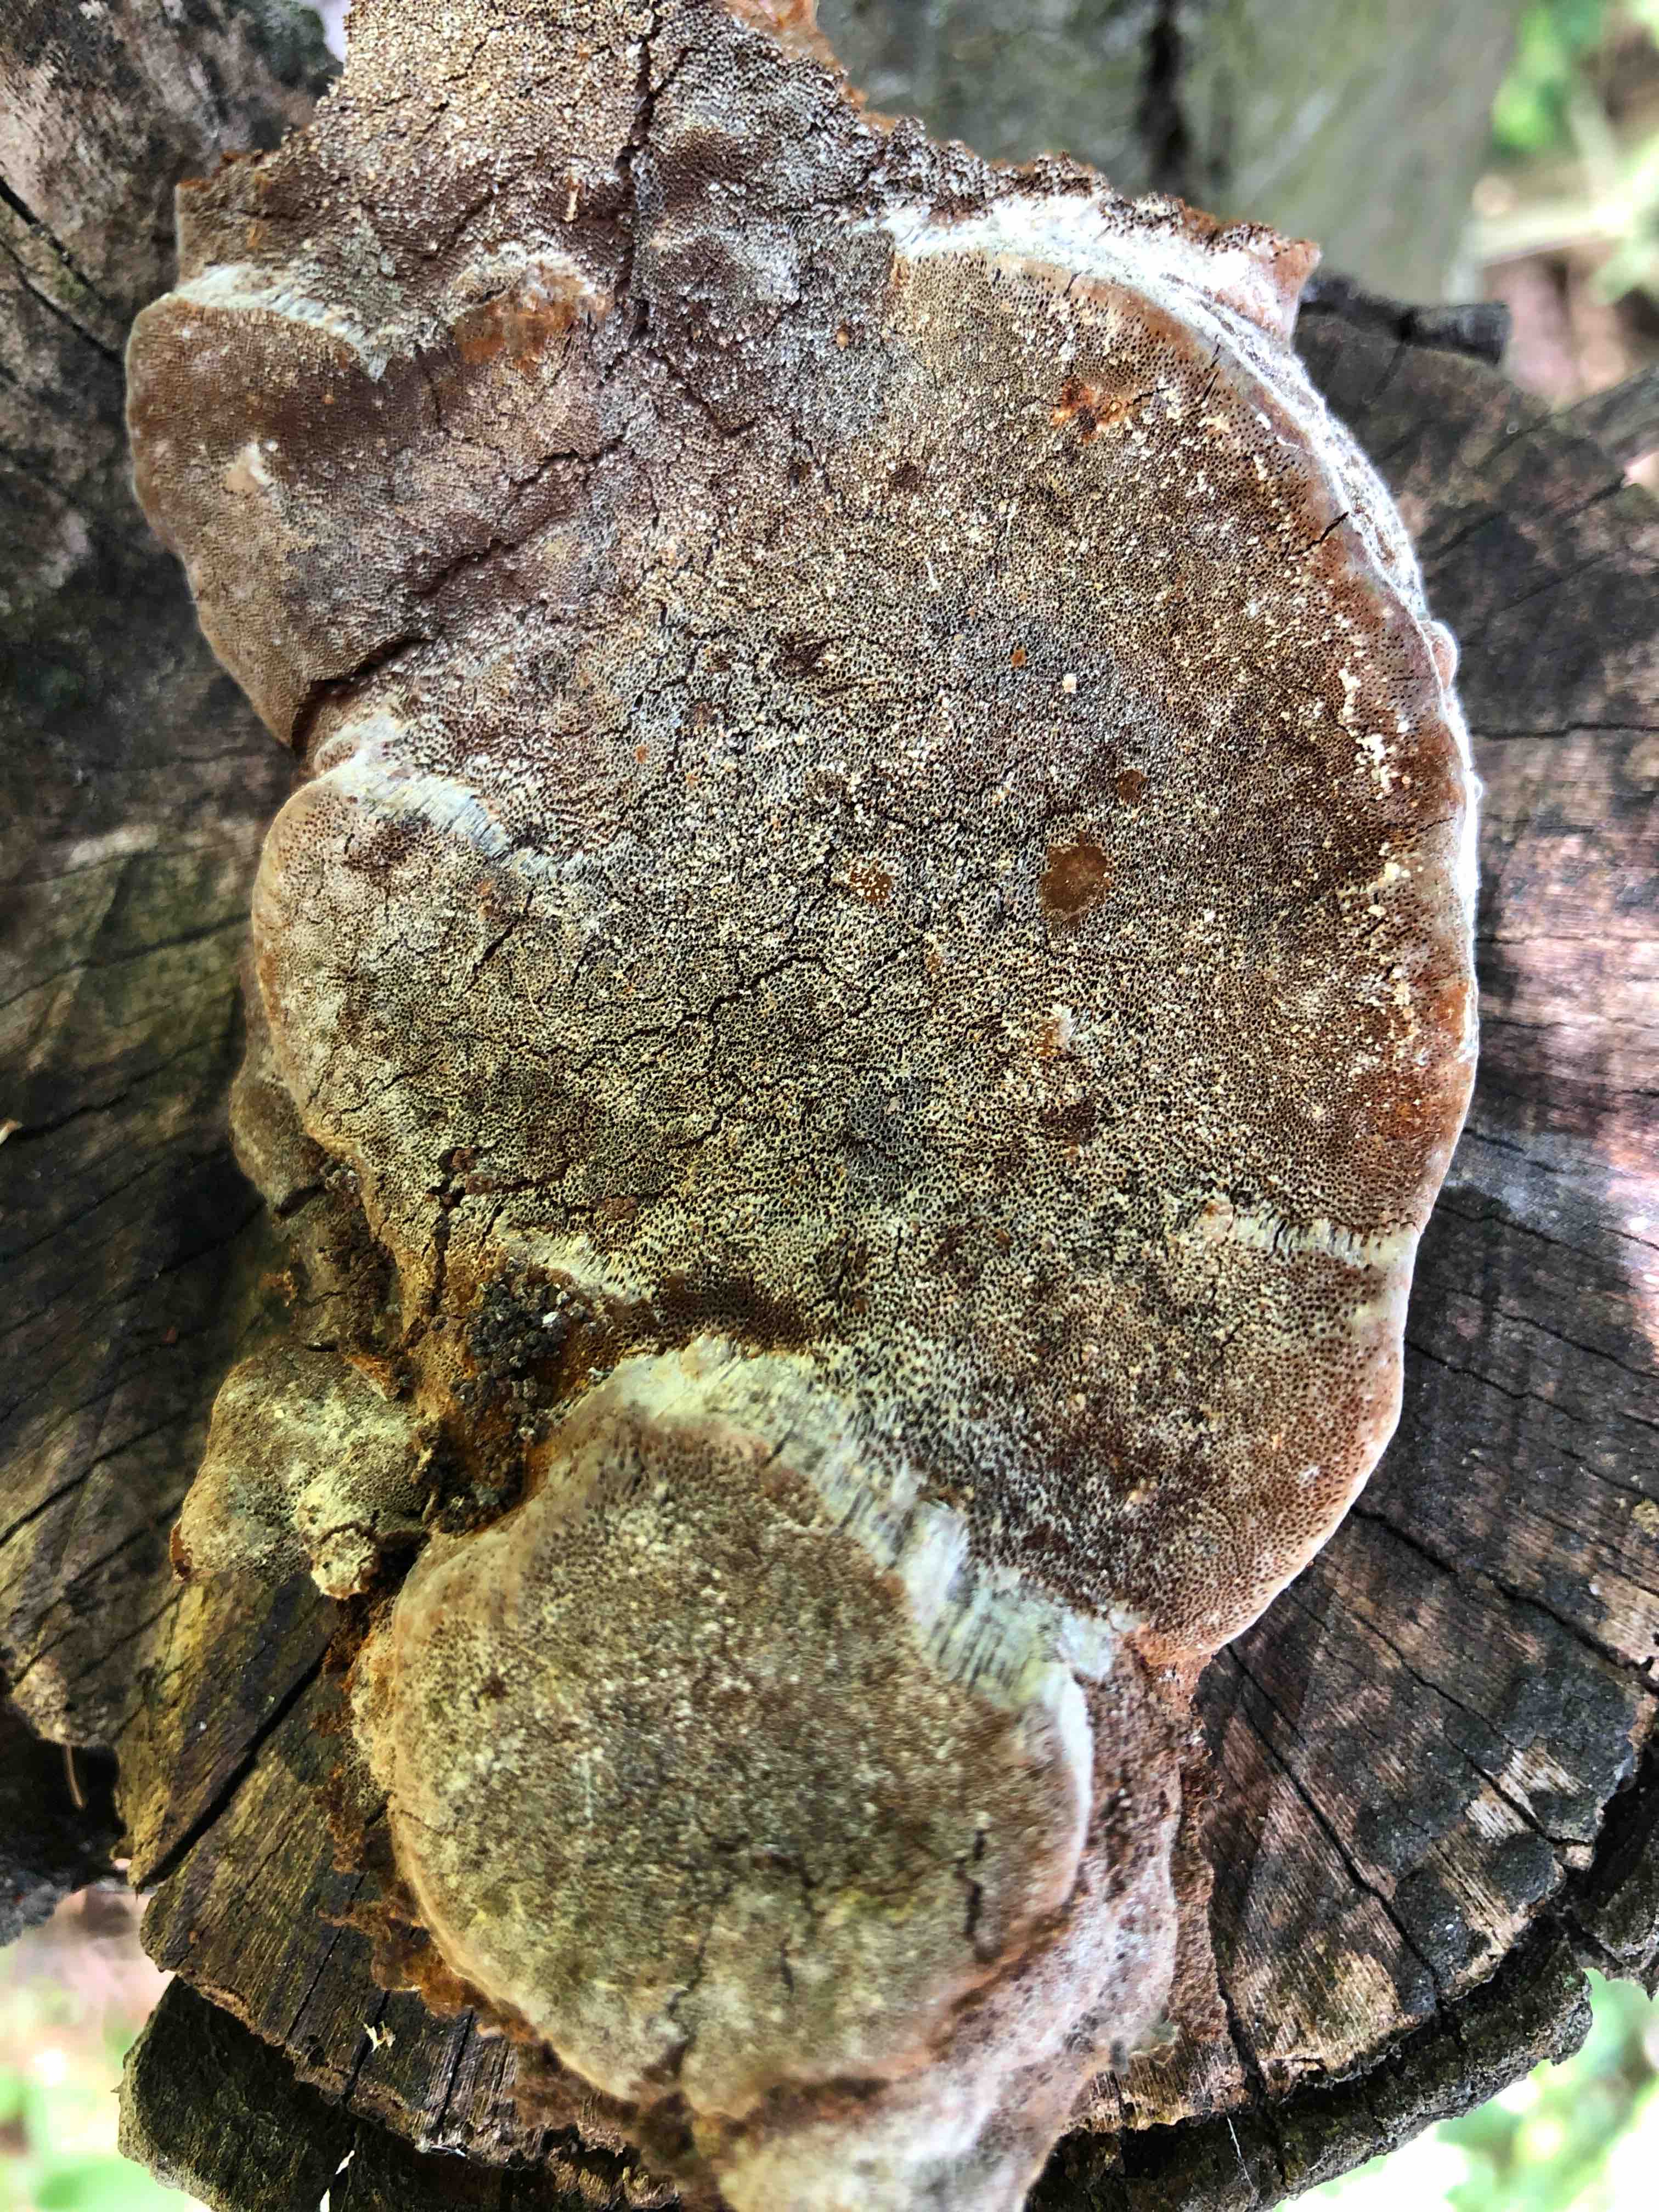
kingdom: Fungi
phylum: Basidiomycota
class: Agaricomycetes
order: Hymenochaetales
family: Hymenochaetaceae
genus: Phellinus
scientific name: Phellinus pomaceus
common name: blomme-ildporesvamp
